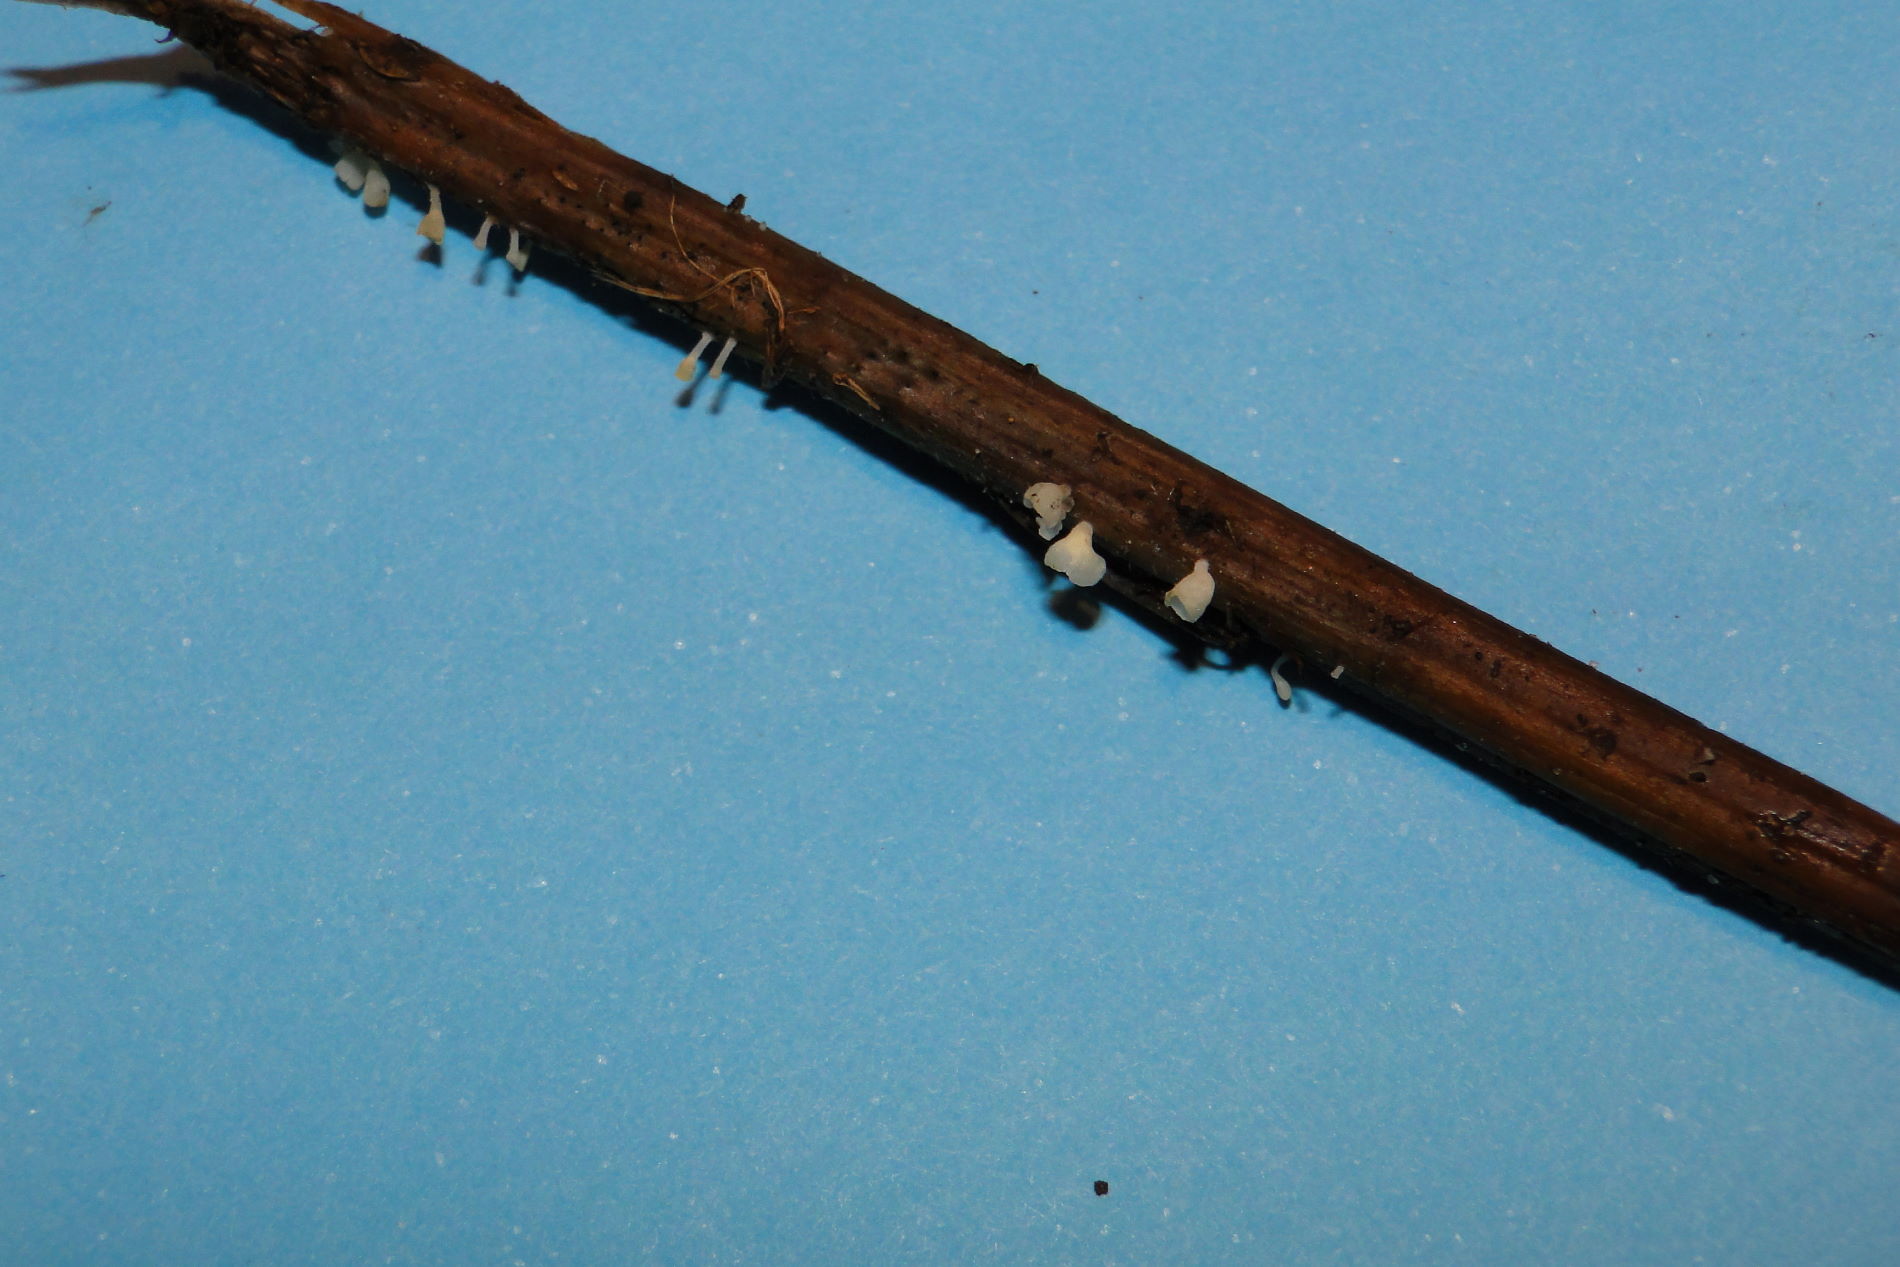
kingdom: Fungi
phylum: Basidiomycota
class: Agaricomycetes
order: Agaricales
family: Marasmiaceae
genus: Calyptella
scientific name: Calyptella capula
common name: hvidlig nældehue
